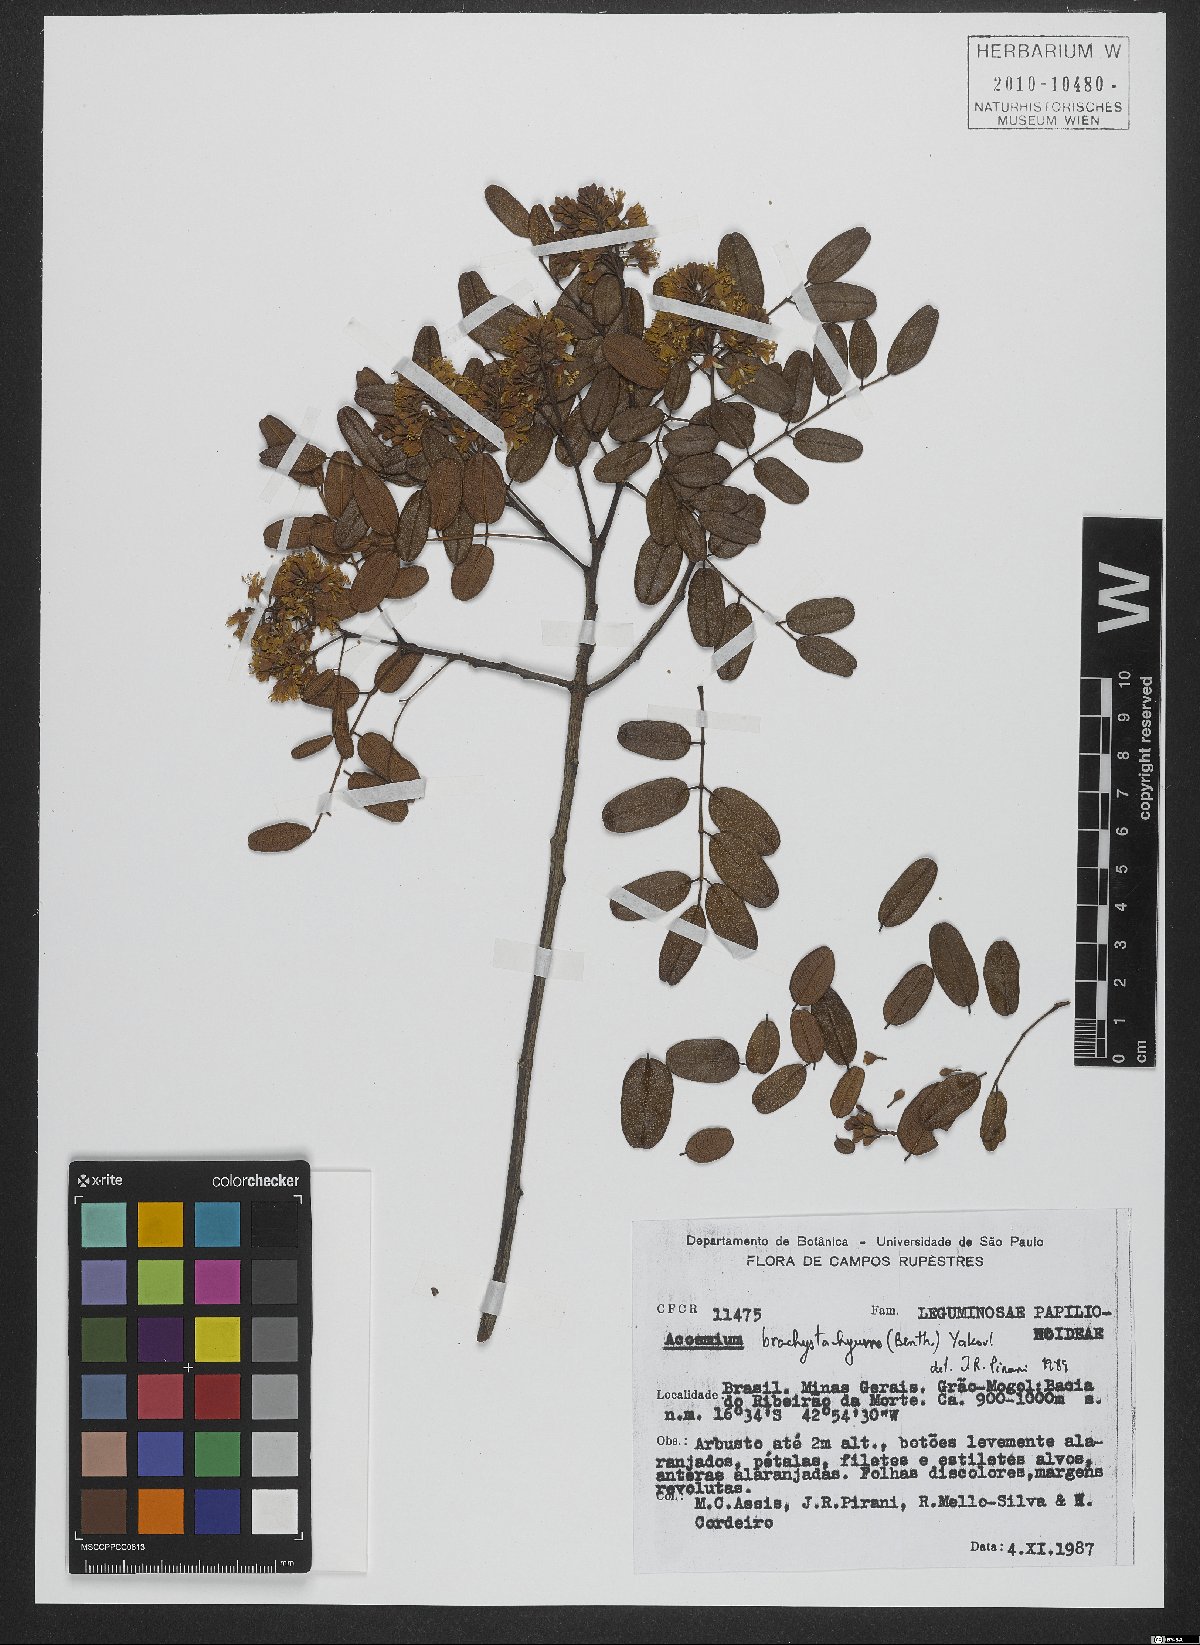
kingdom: Plantae
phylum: Tracheophyta
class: Magnoliopsida
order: Fabales
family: Fabaceae
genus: Leptolobium
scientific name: Leptolobium brachystachyum
